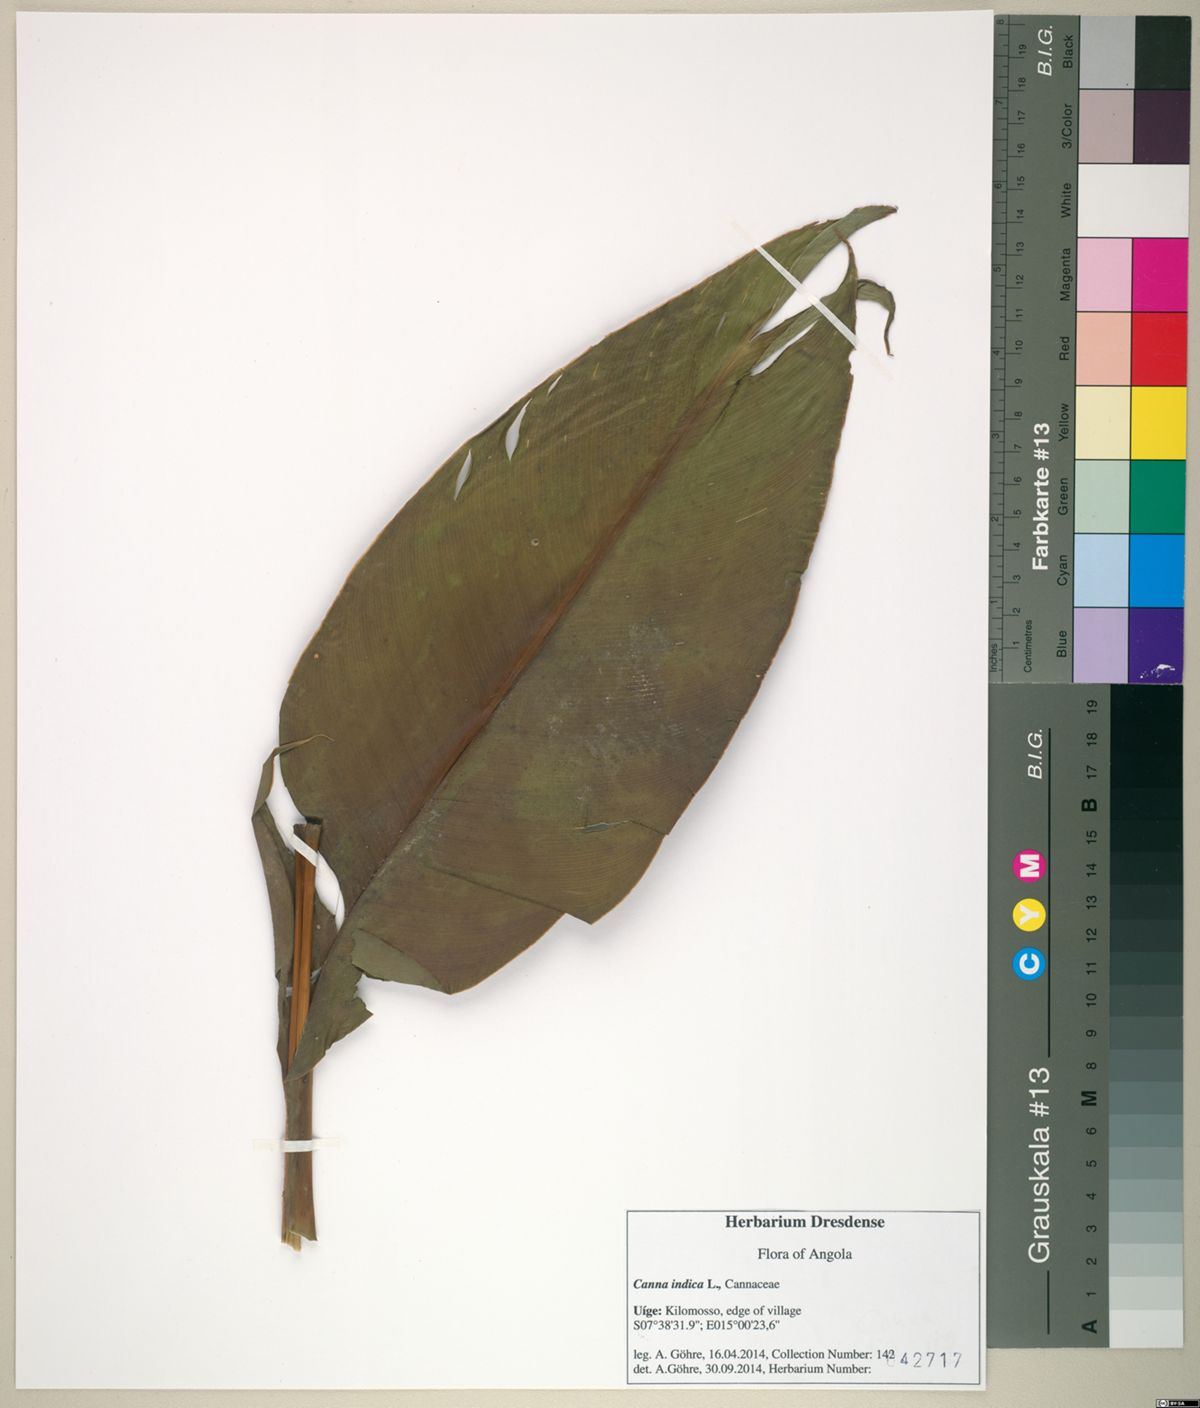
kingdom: Plantae
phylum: Tracheophyta
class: Liliopsida
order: Zingiberales
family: Cannaceae
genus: Canna
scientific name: Canna indica
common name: Indian shot
